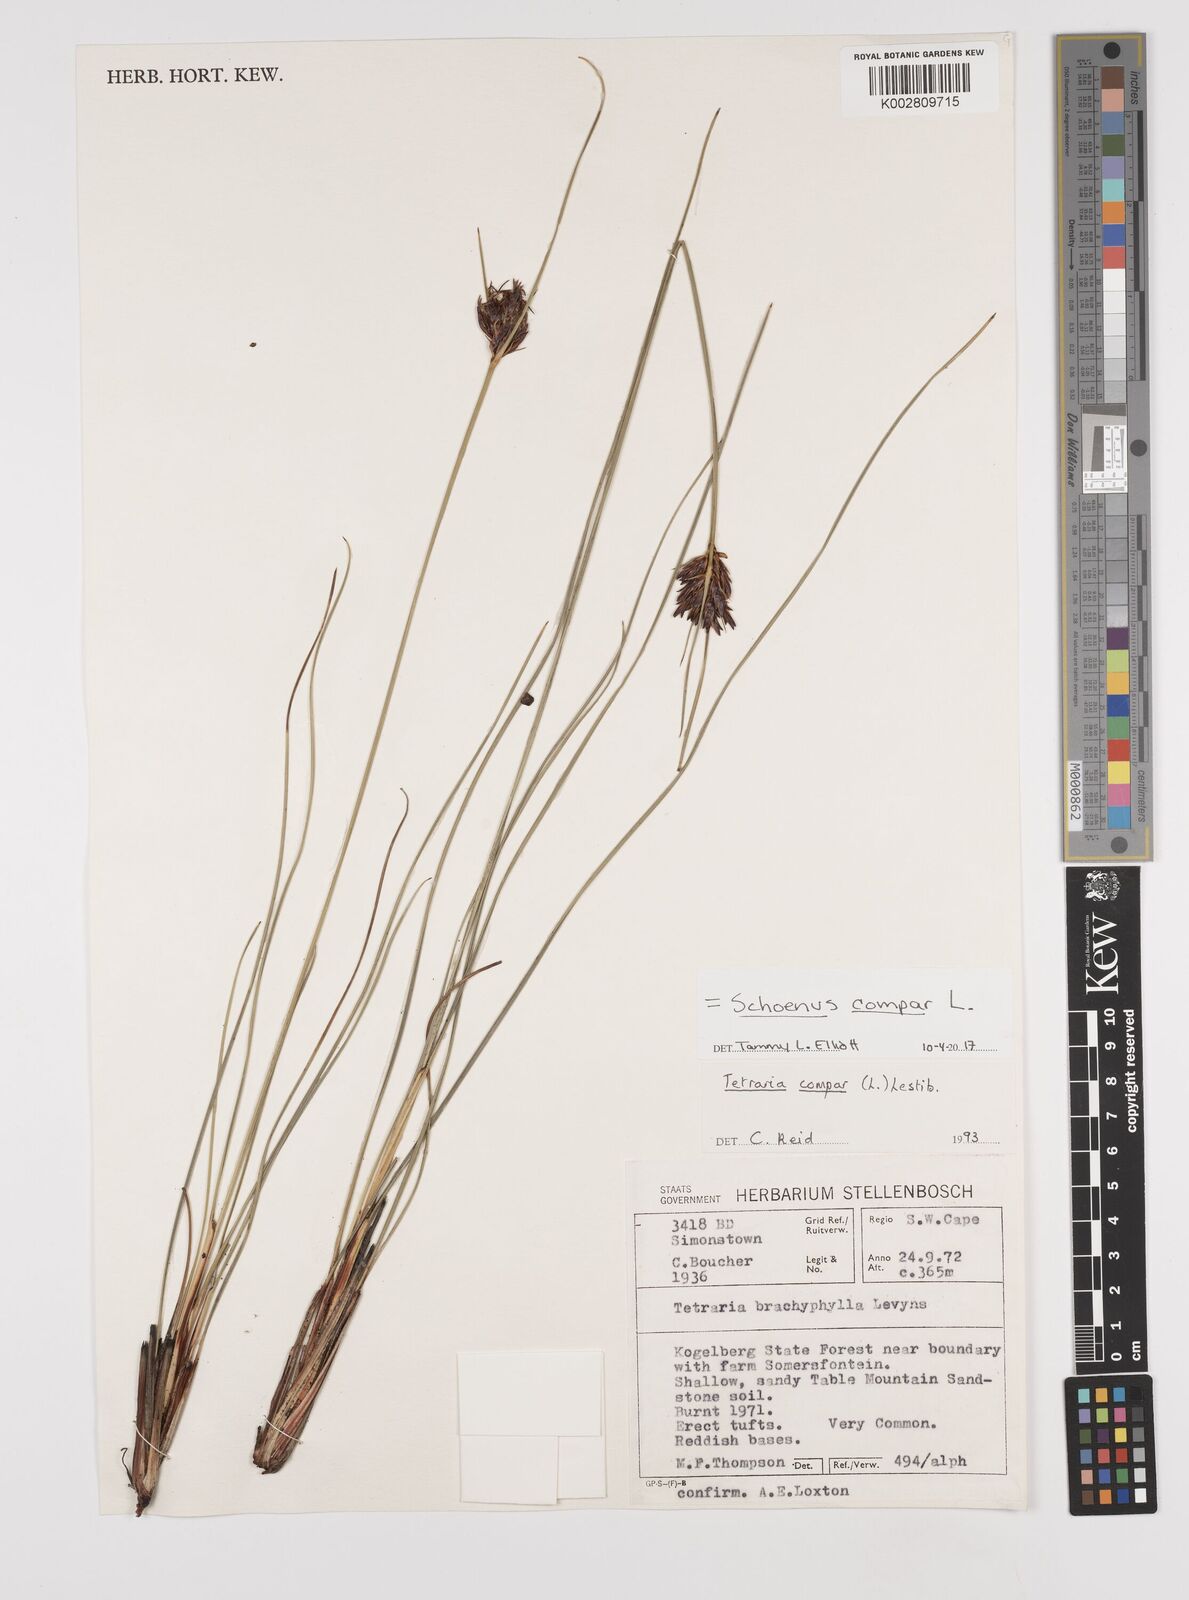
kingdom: Plantae
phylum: Tracheophyta
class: Liliopsida
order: Poales
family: Cyperaceae
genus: Schoenus
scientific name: Schoenus compar
